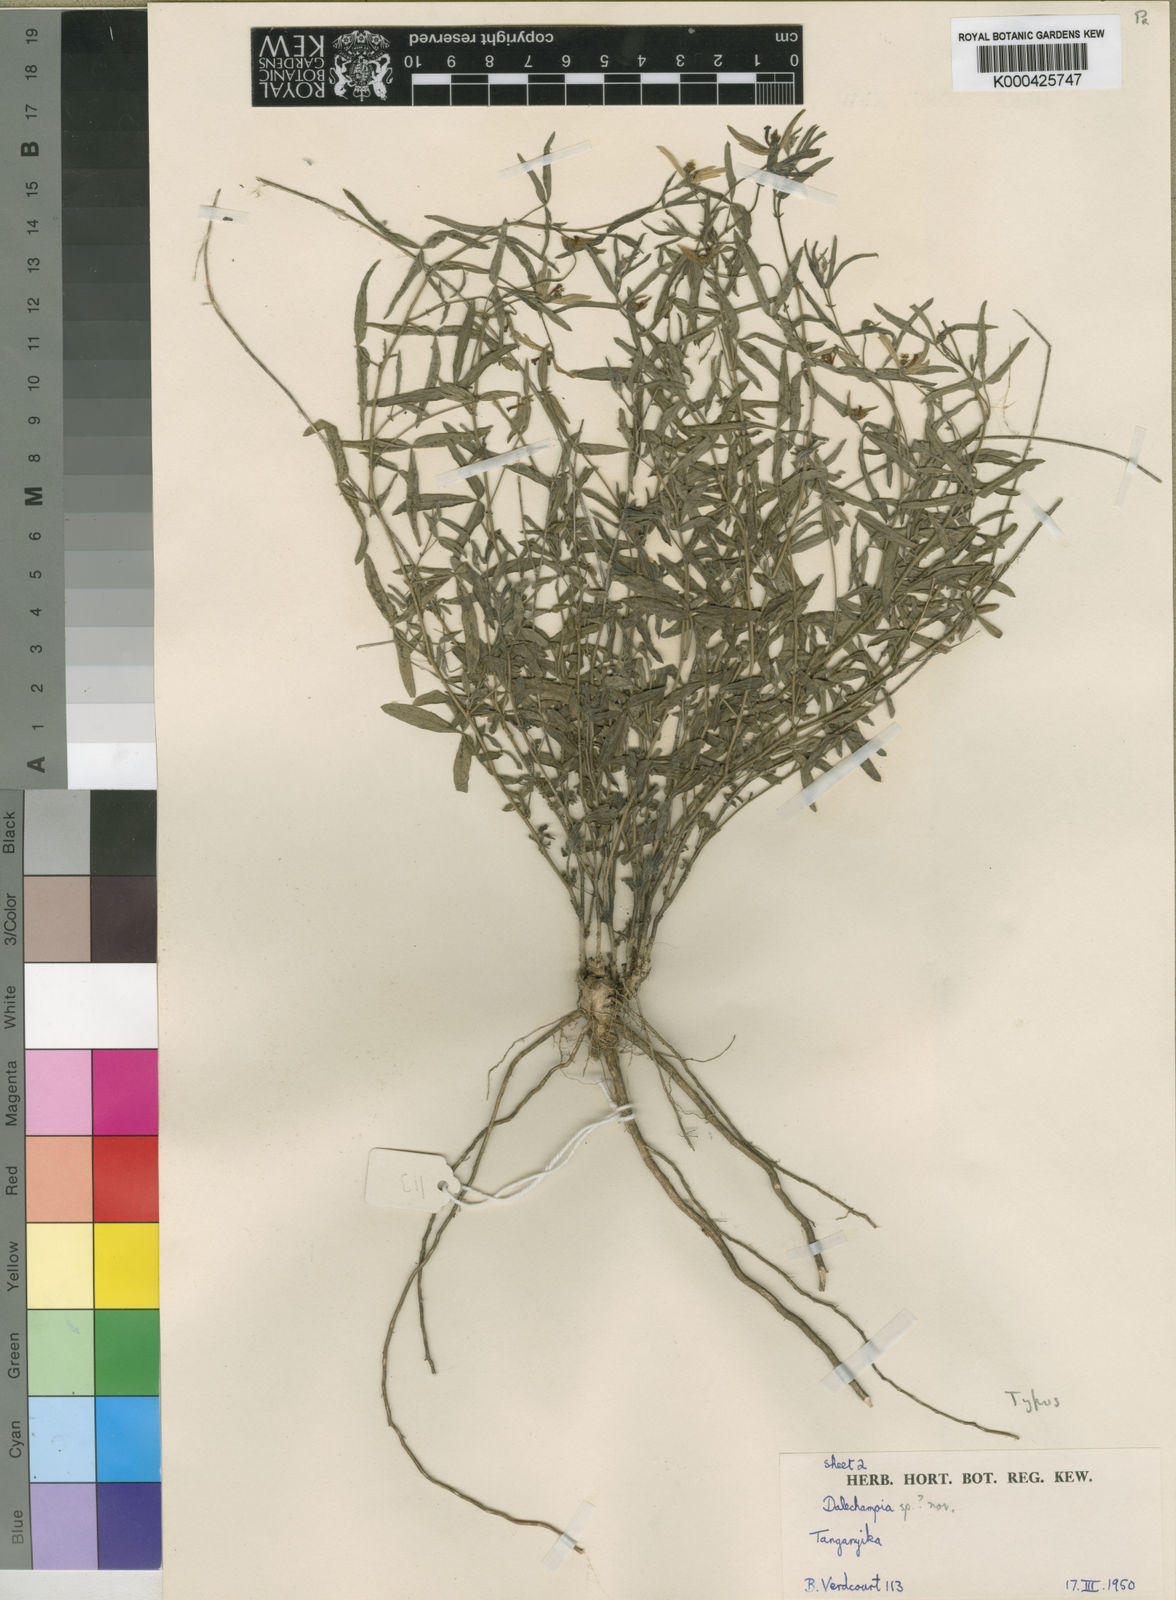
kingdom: Plantae
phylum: Tracheophyta
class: Magnoliopsida
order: Malpighiales
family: Euphorbiaceae
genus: Dalechampia
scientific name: Dalechampia trifoliata
